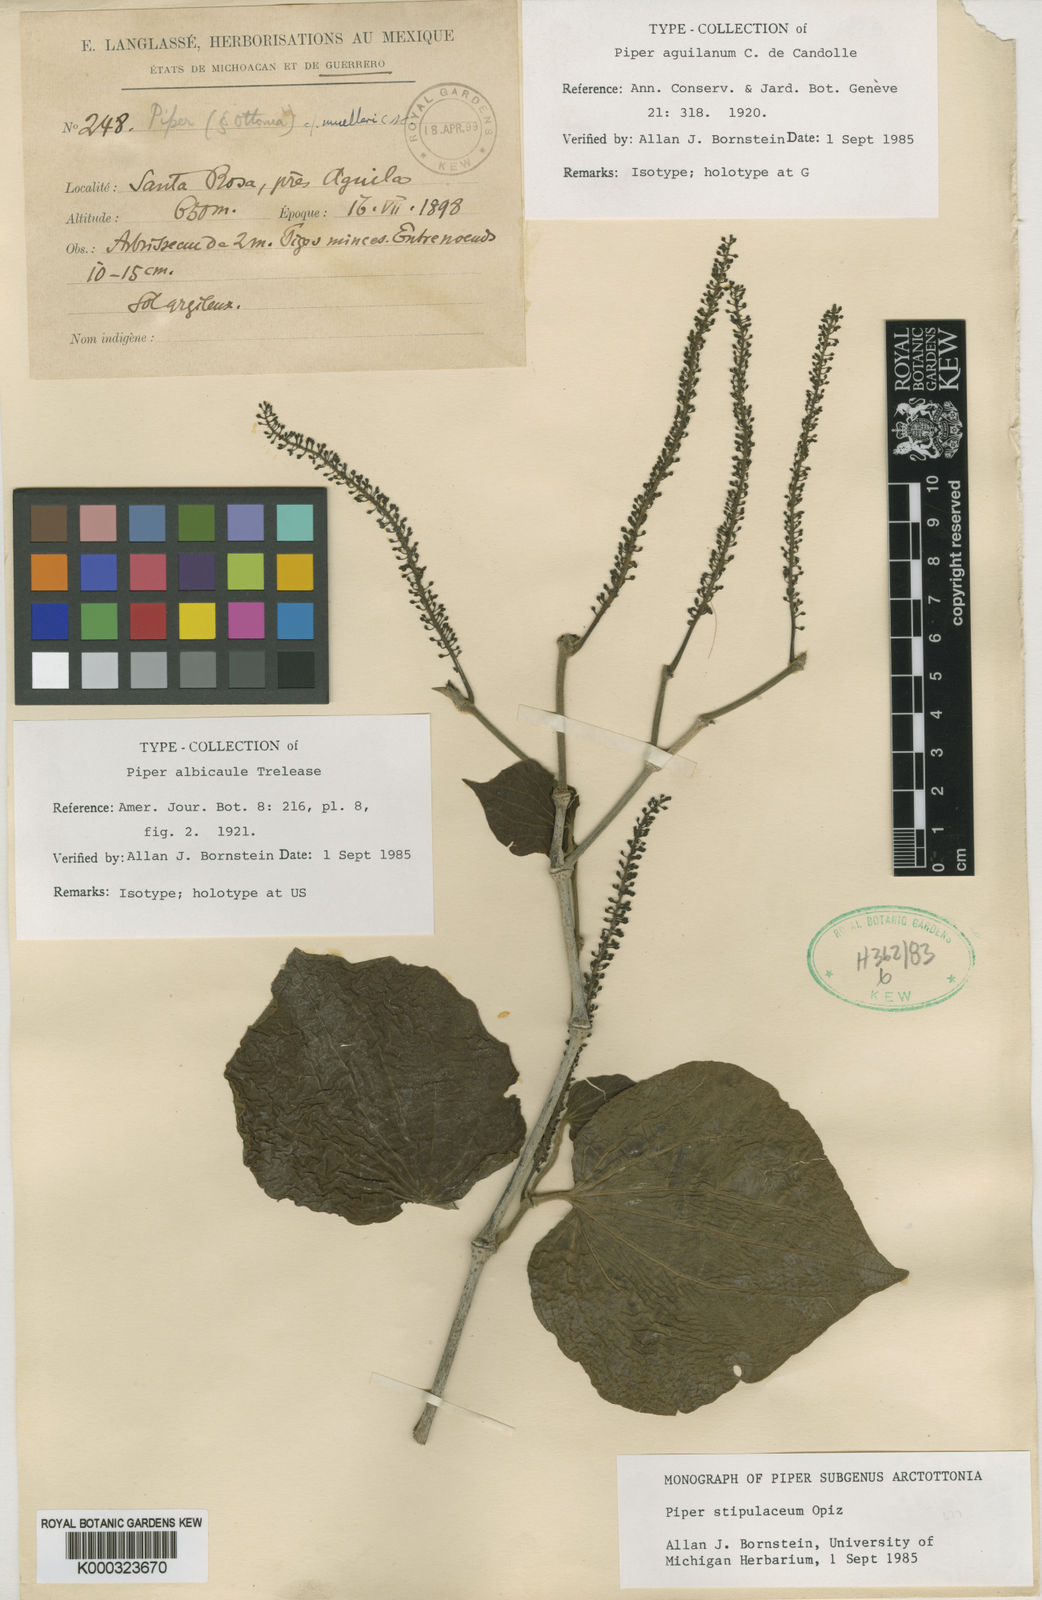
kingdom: Plantae
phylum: Tracheophyta
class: Magnoliopsida
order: Piperales
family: Piperaceae
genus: Piper
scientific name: Piper stipulaceum
